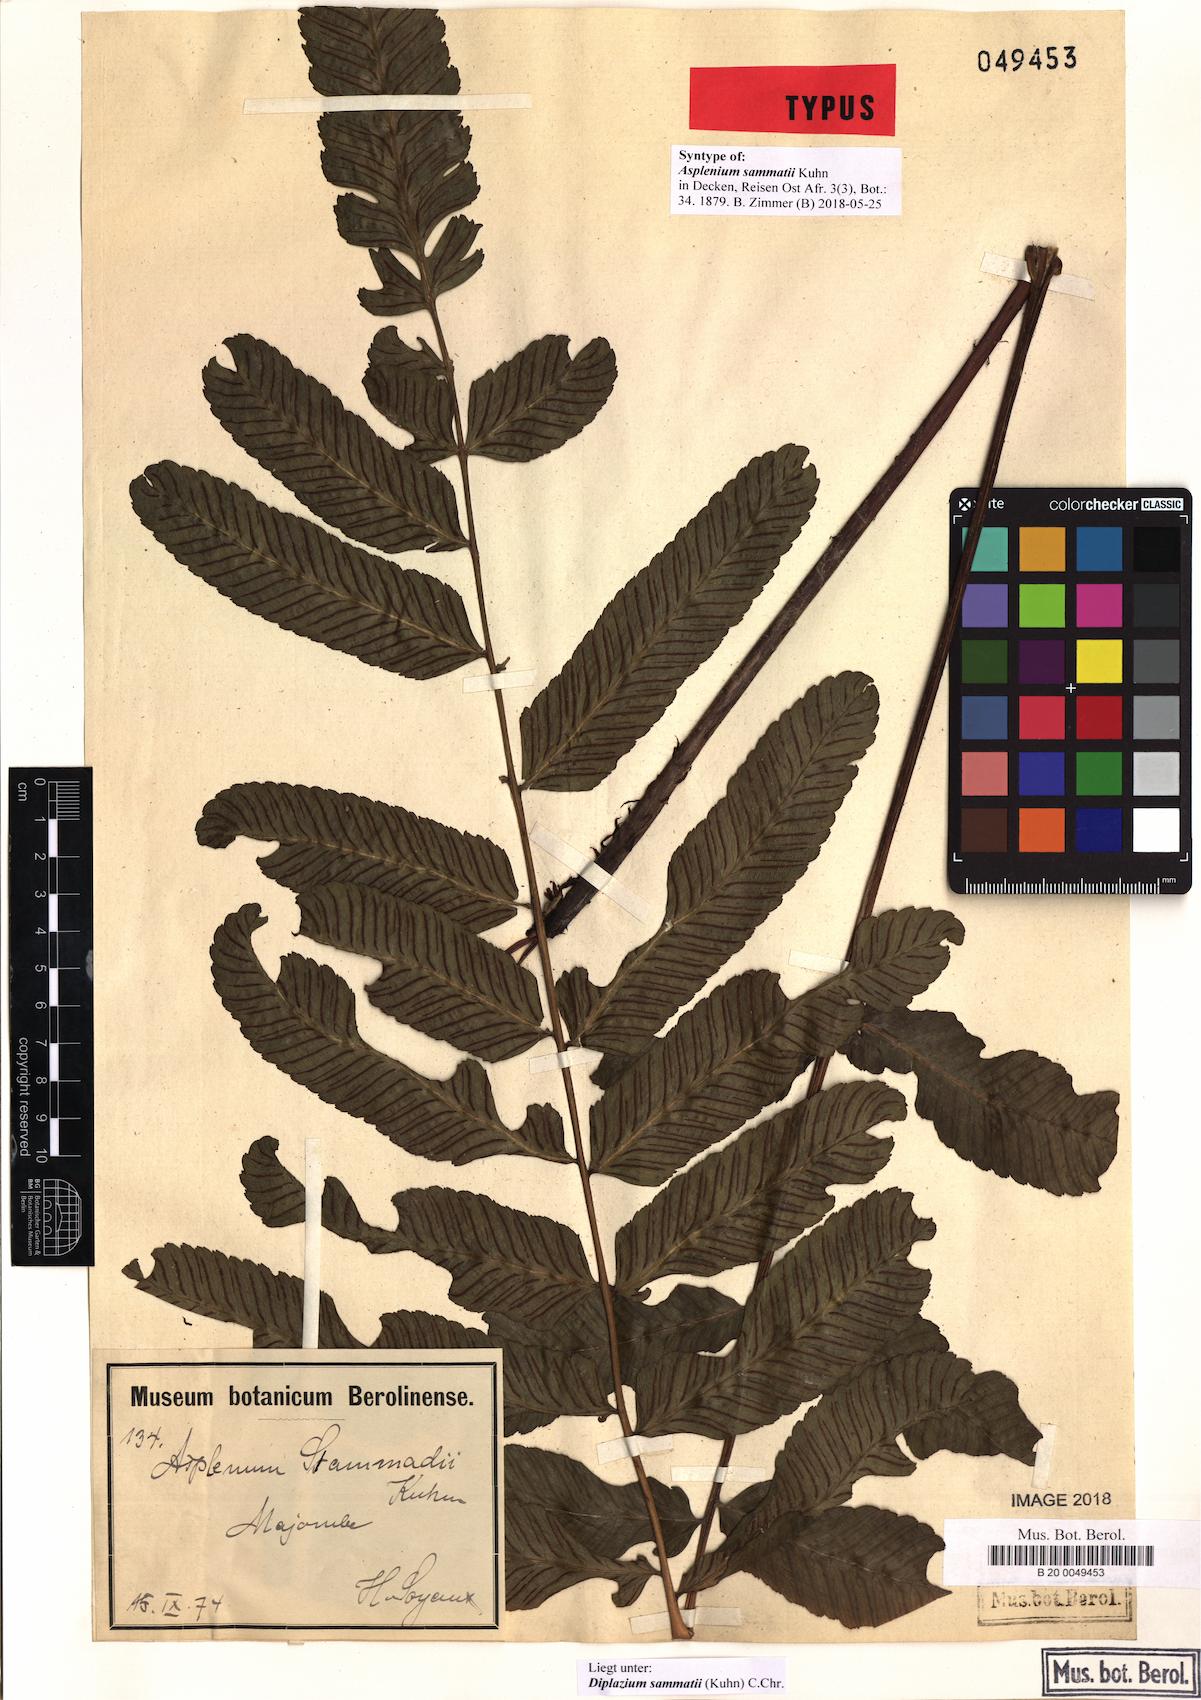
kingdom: Plantae
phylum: Tracheophyta
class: Polypodiopsida
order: Polypodiales
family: Athyriaceae
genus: Diplazium
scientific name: Diplazium sammatii
